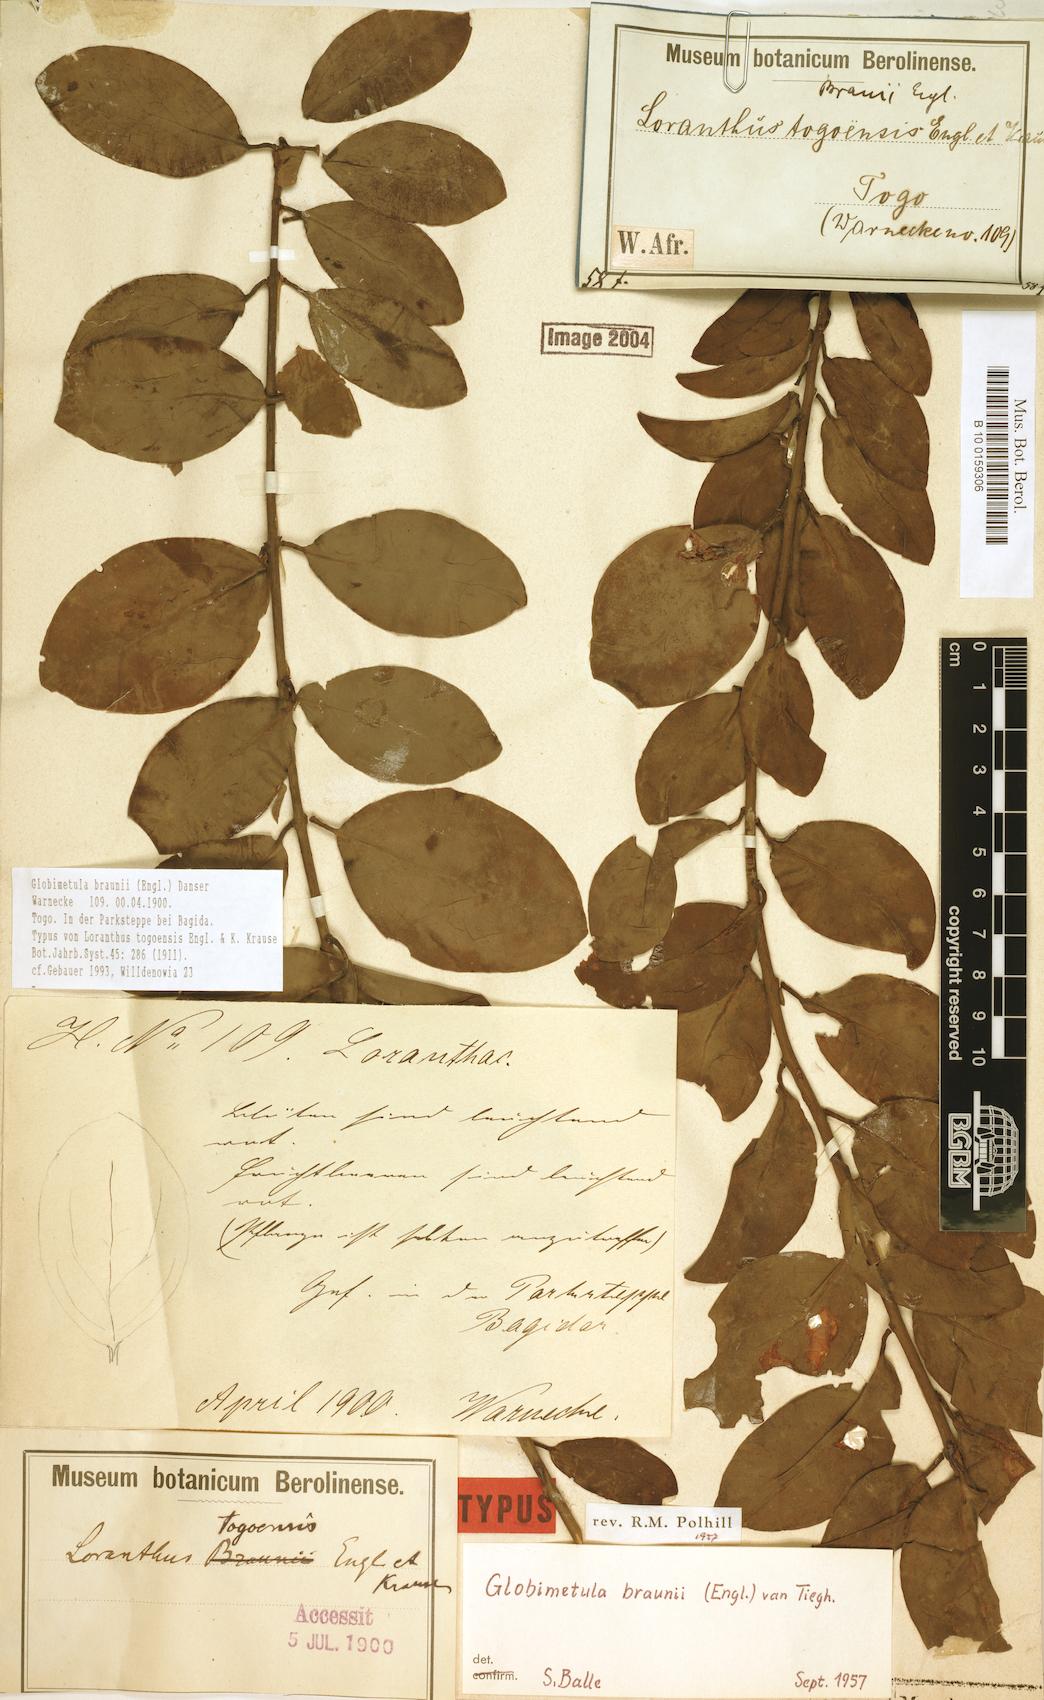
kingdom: Plantae
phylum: Tracheophyta
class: Magnoliopsida
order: Santalales
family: Loranthaceae
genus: Globimetula
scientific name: Globimetula braunii
